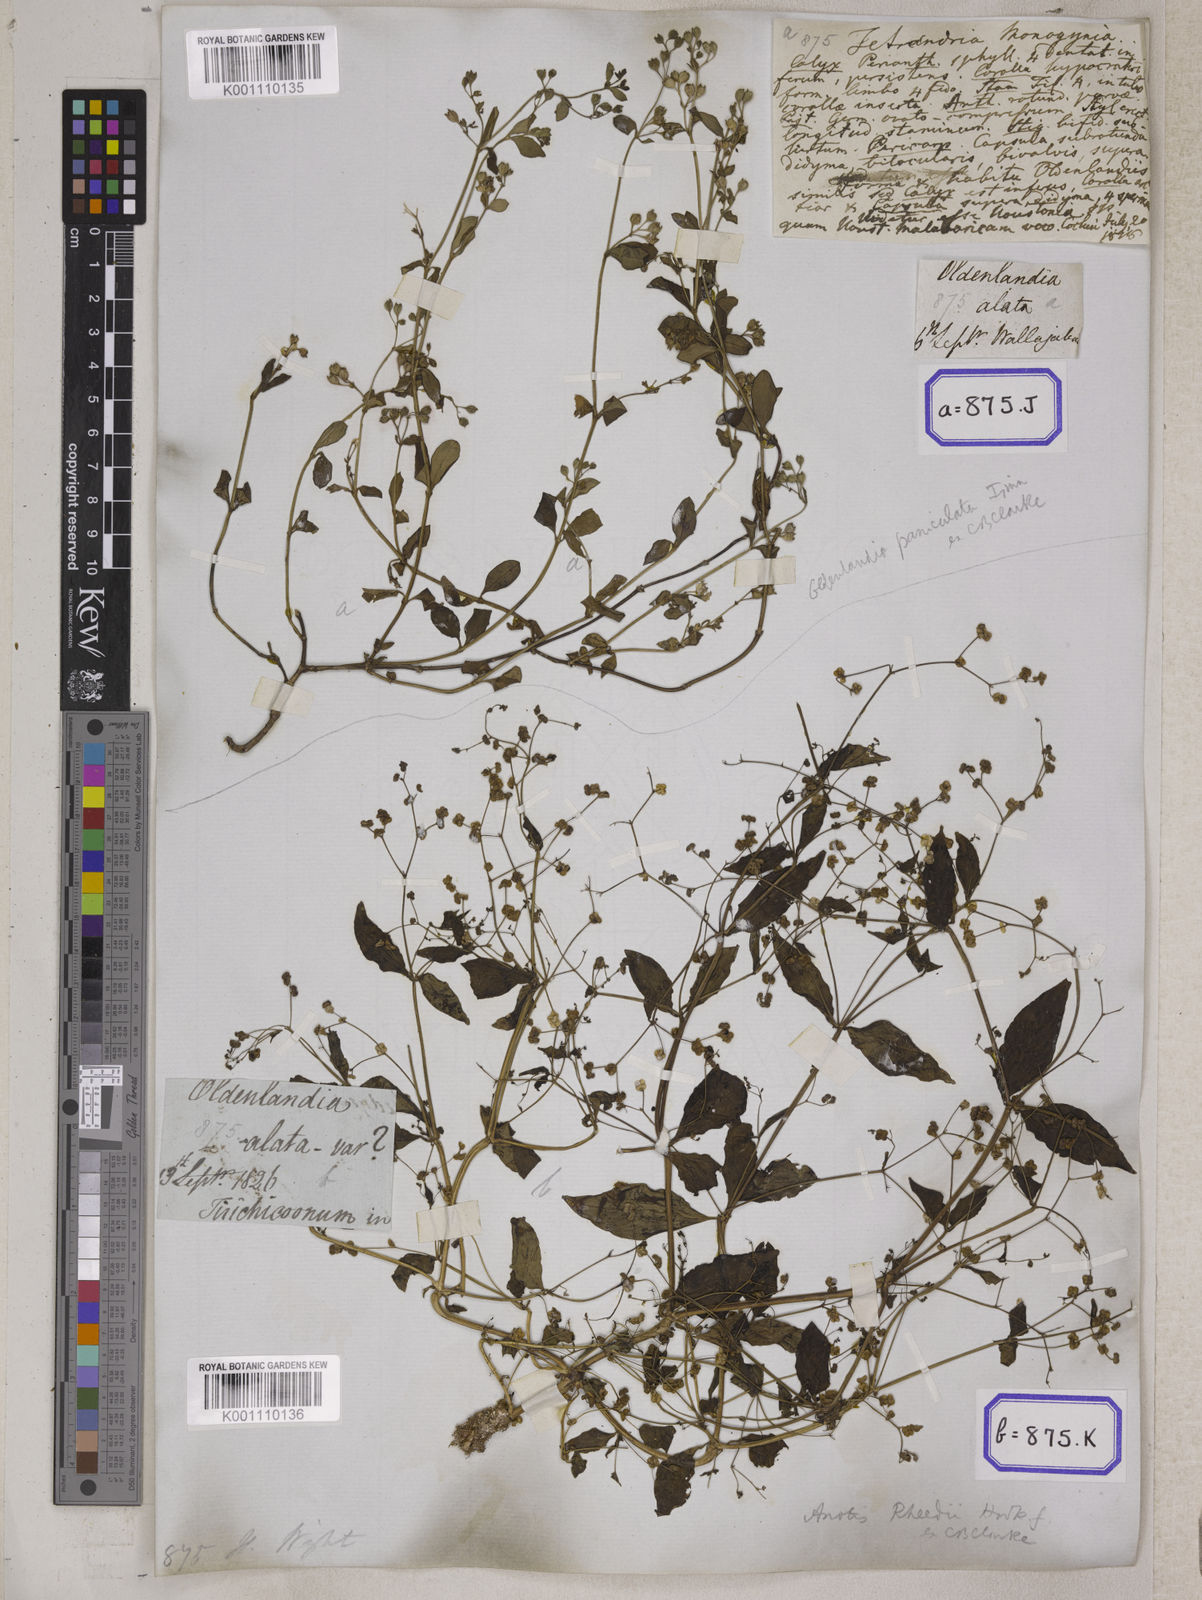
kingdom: Plantae
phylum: Tracheophyta
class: Magnoliopsida
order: Gentianales
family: Rubiaceae
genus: Leptopetalum
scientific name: Leptopetalum racemosum
